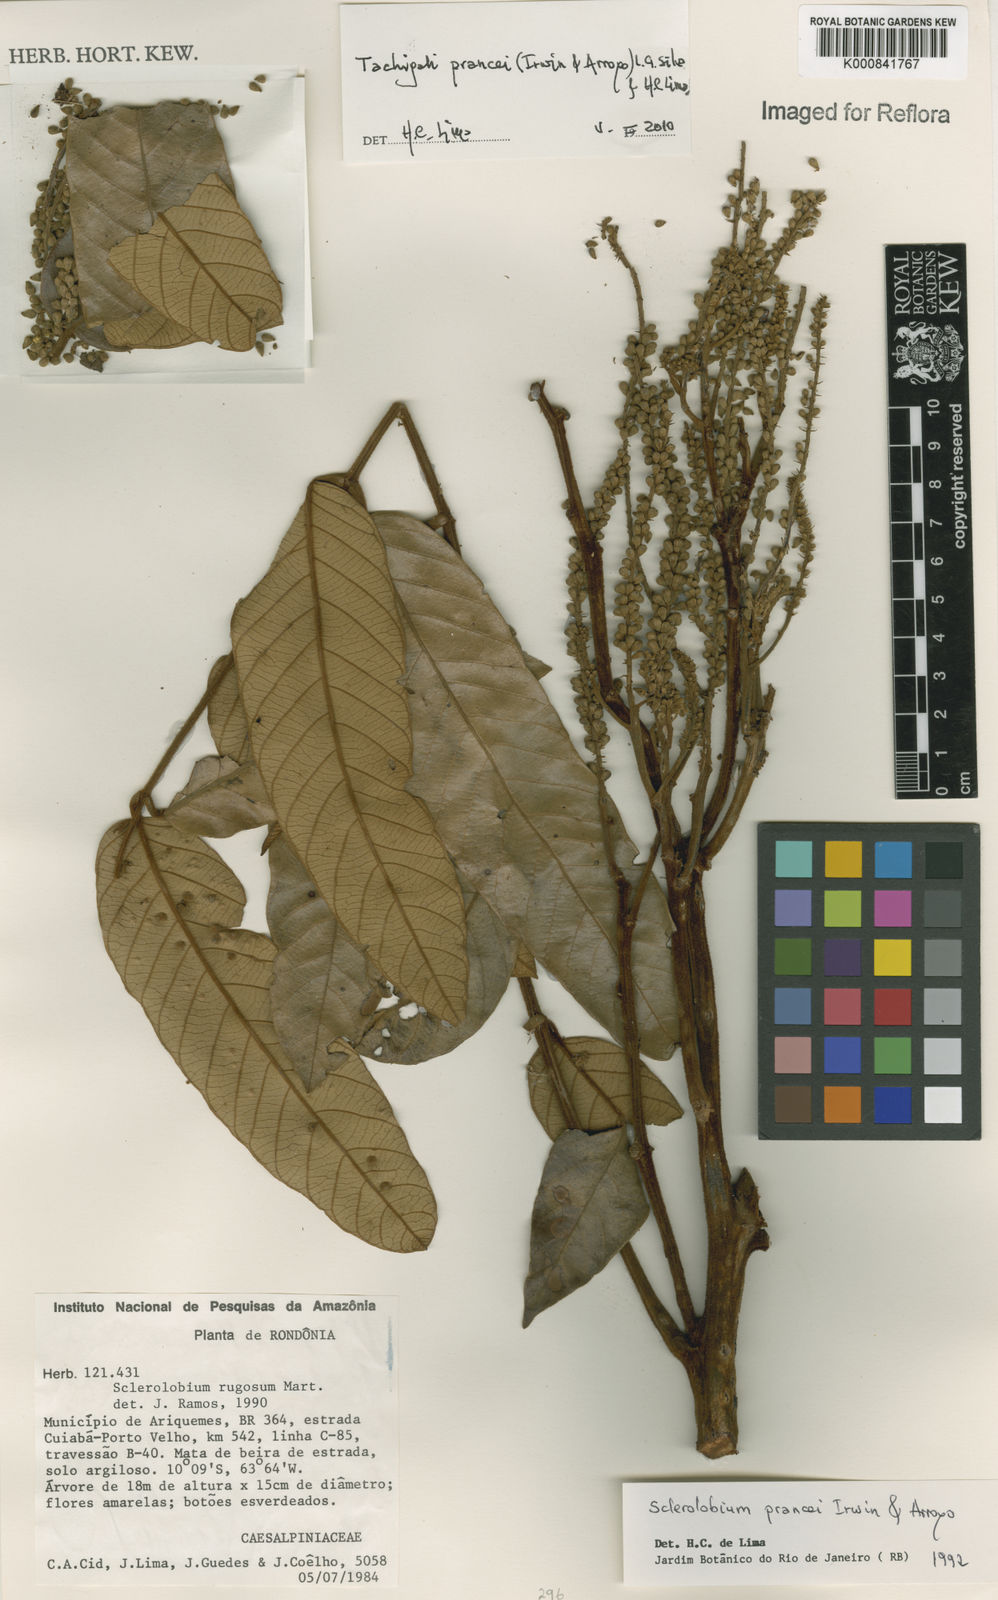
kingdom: Plantae
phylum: Tracheophyta
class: Magnoliopsida
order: Fabales
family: Fabaceae
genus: Tachigali
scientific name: Tachigali prancei
